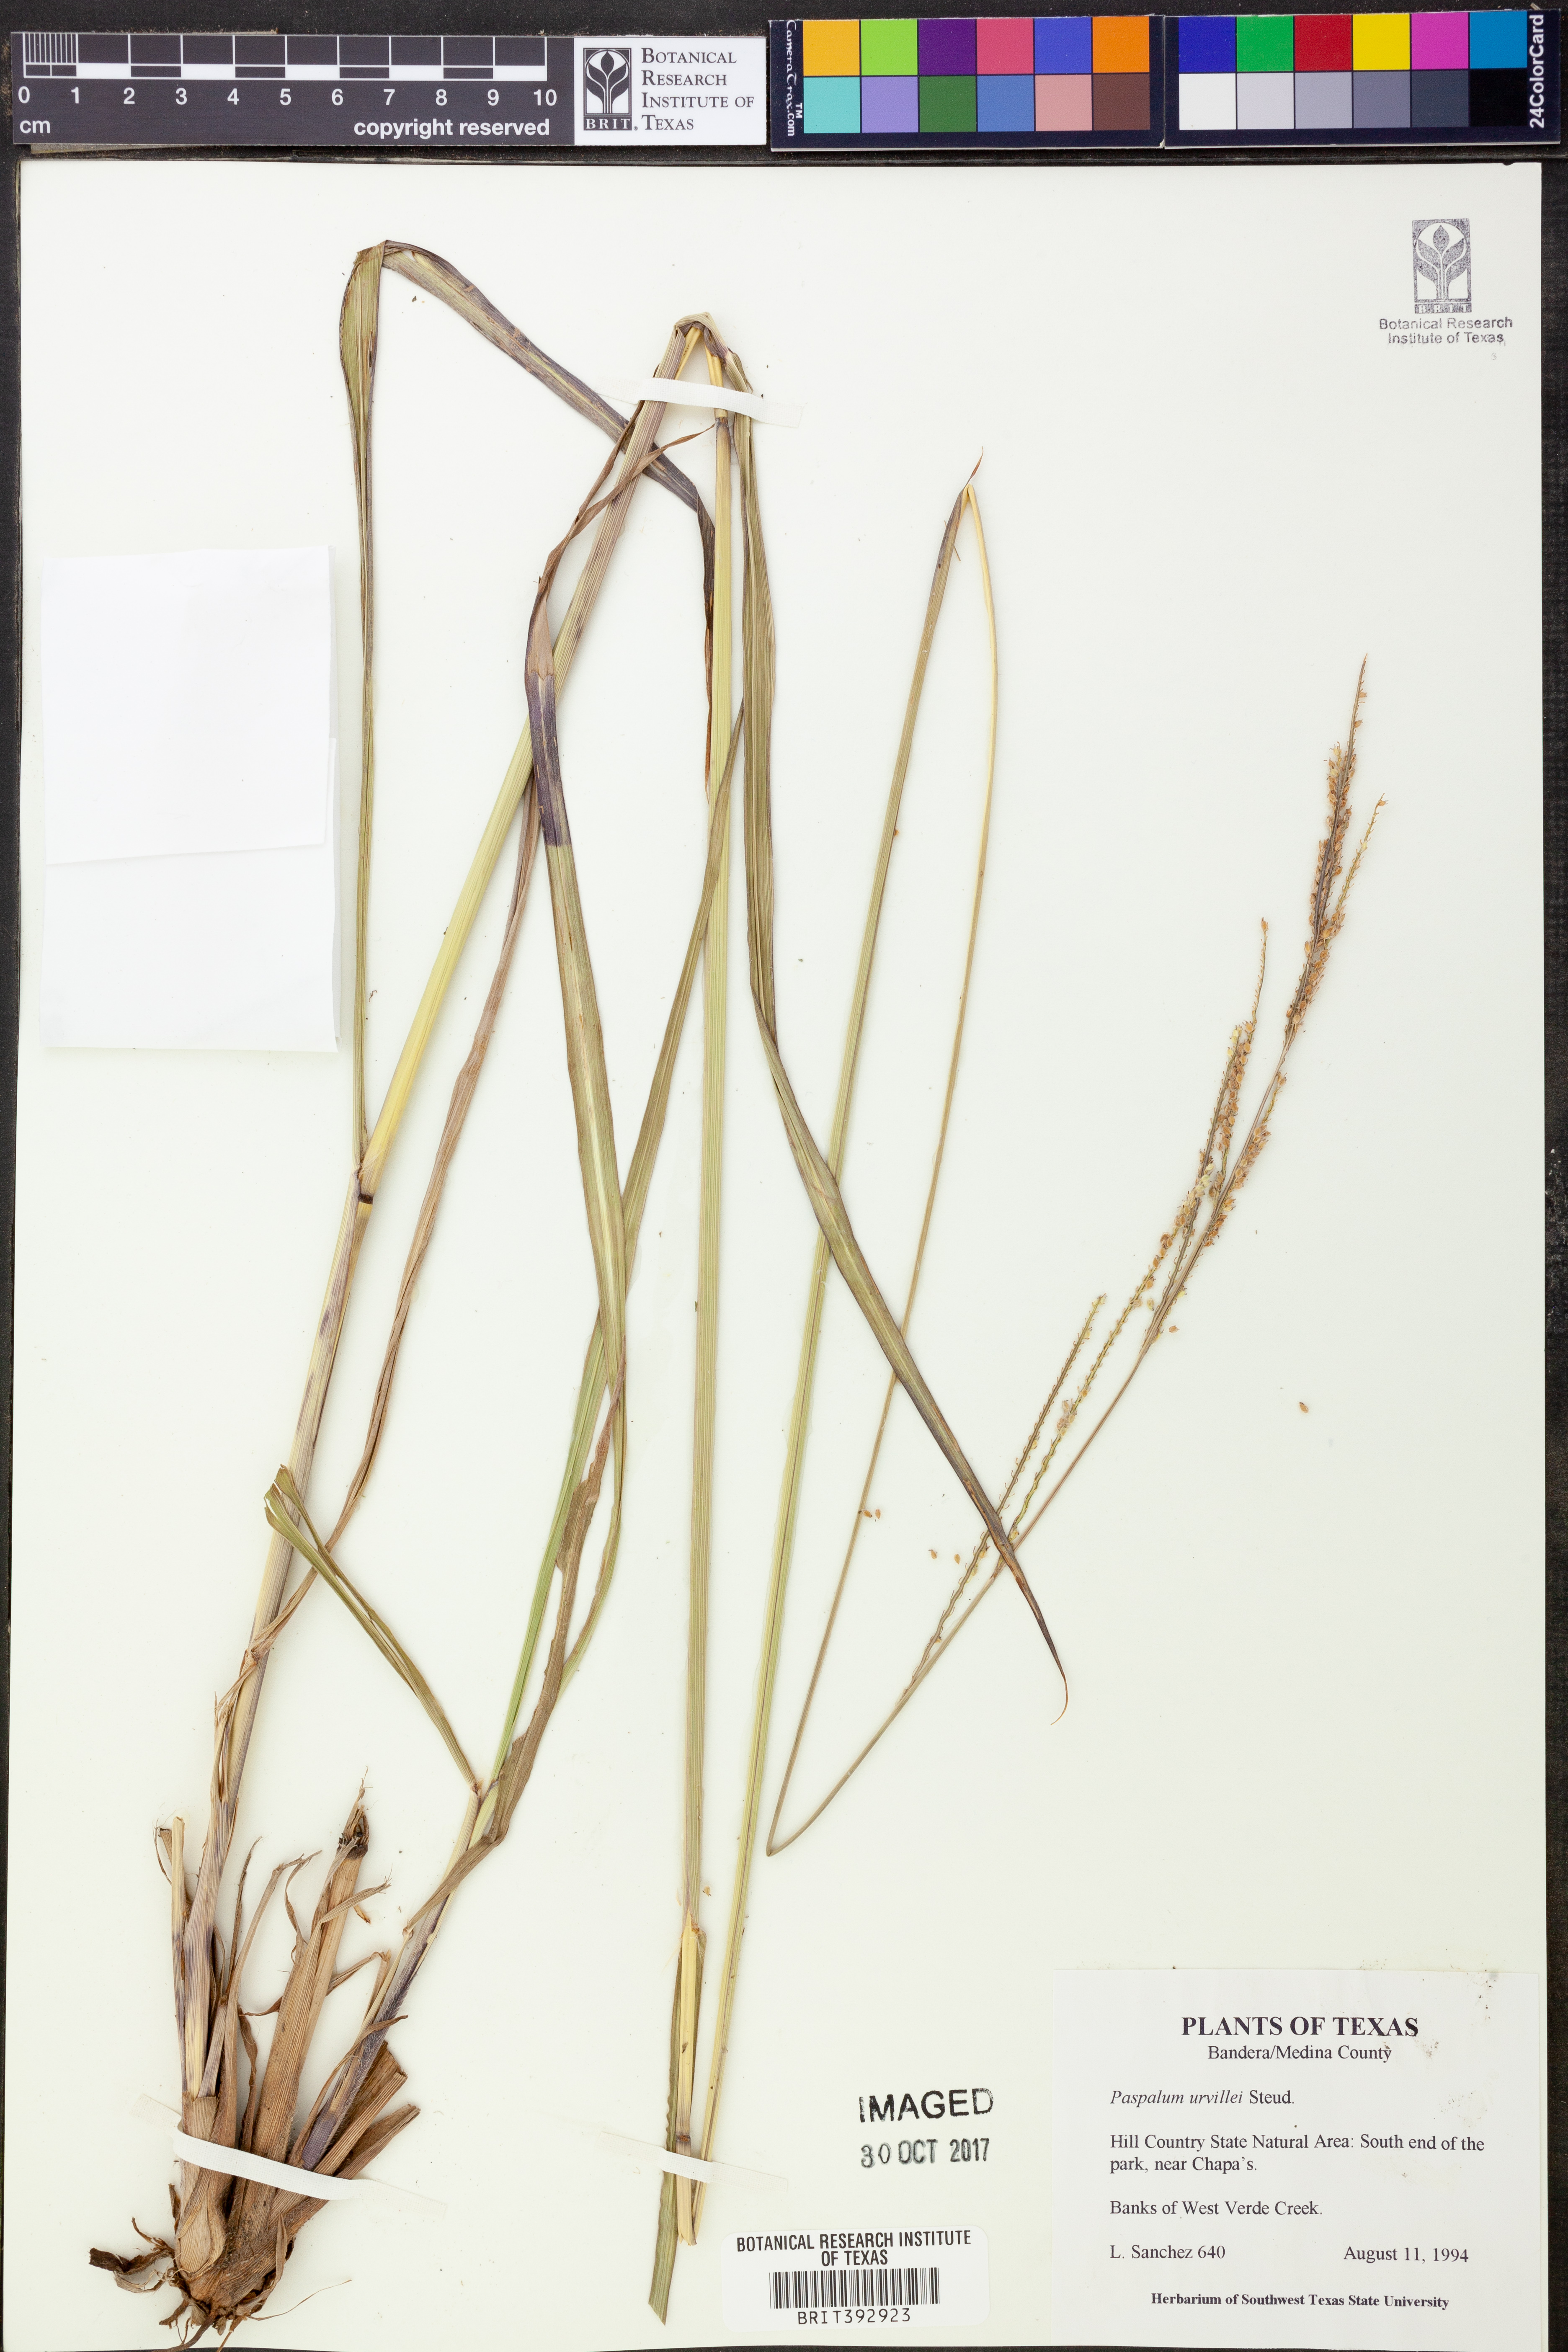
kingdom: Plantae
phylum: Tracheophyta
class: Liliopsida
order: Poales
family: Poaceae
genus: Paspalum
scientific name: Paspalum urvillei
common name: Vasey's grass
